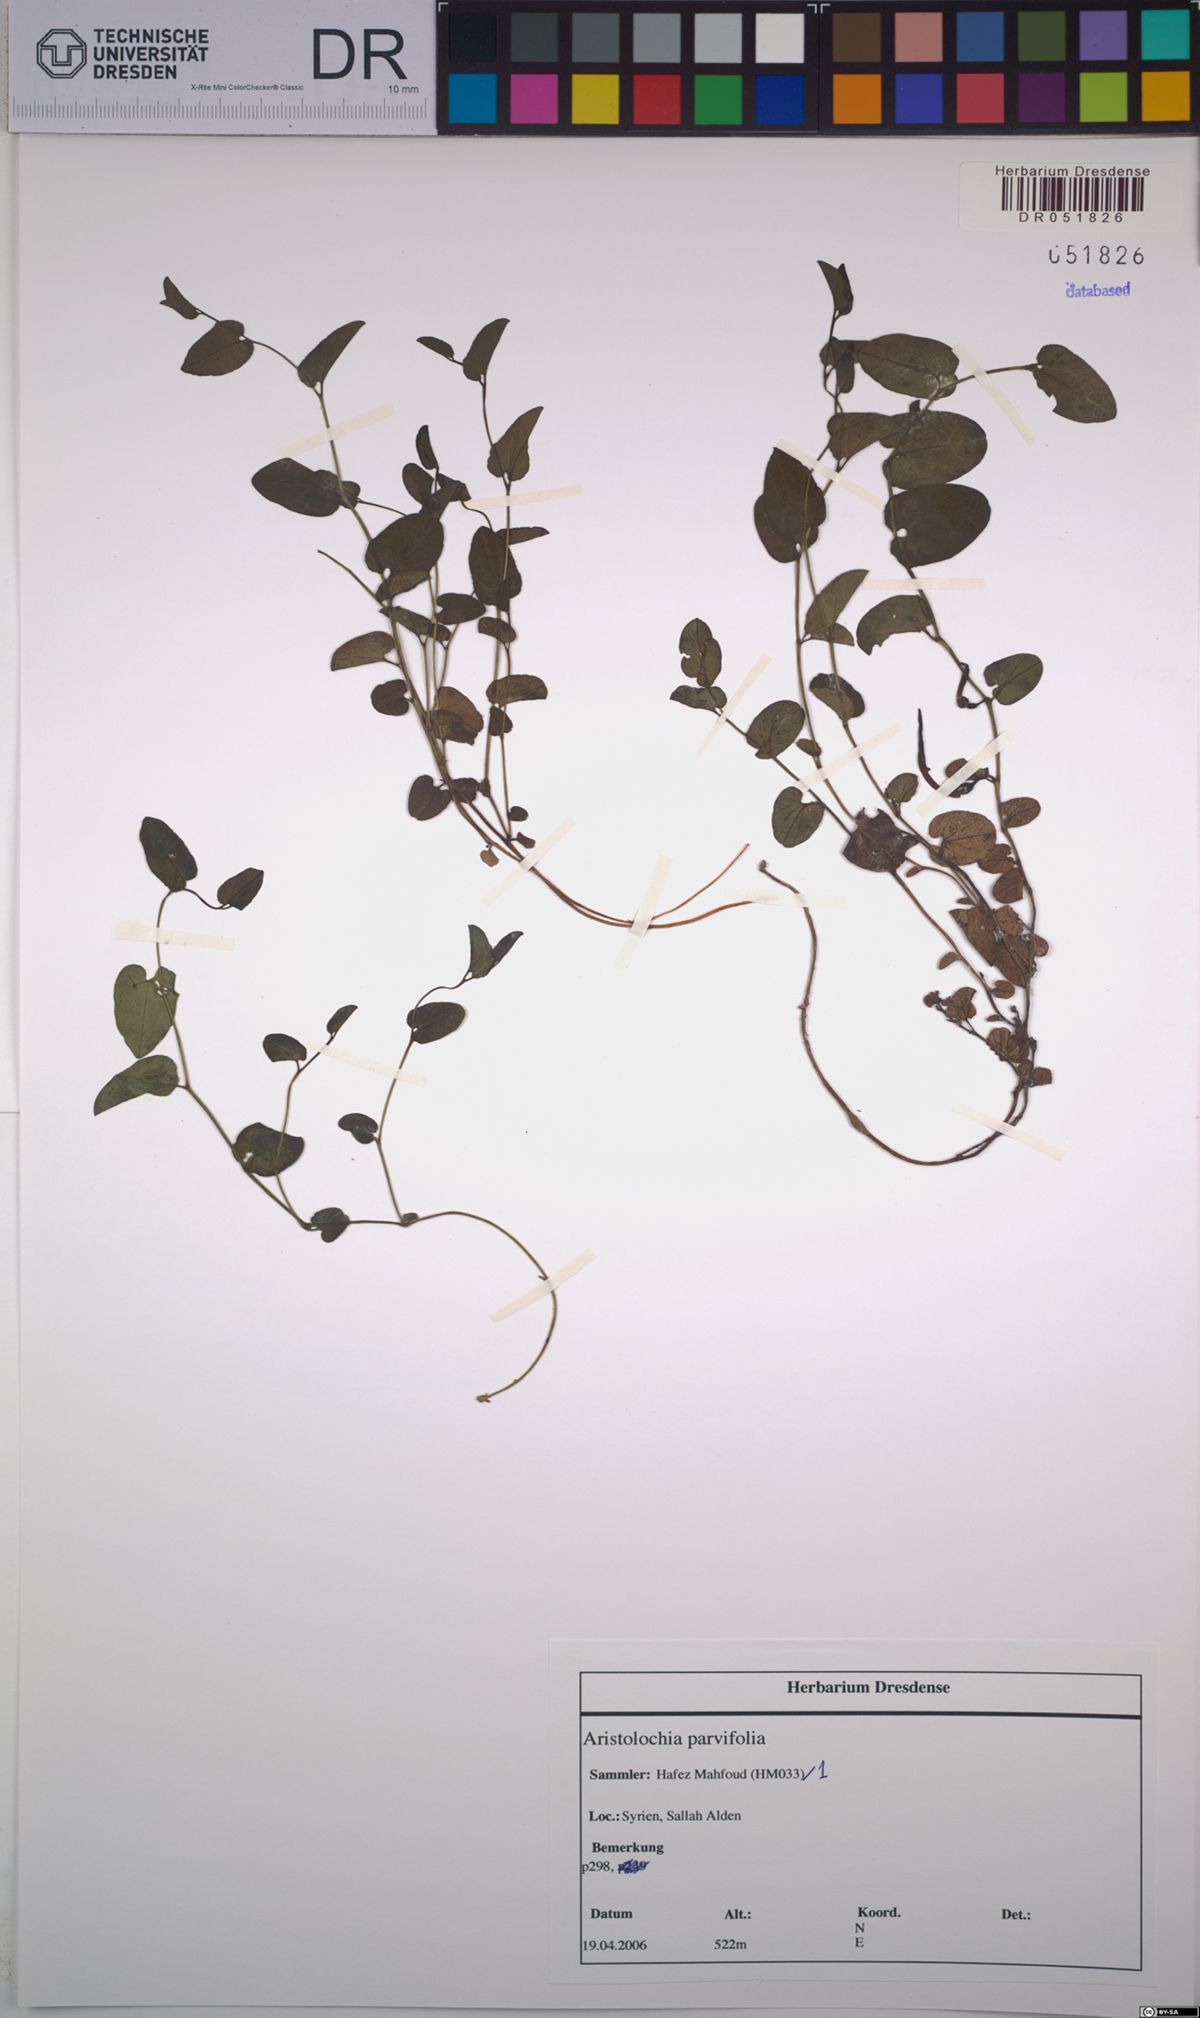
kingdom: Plantae
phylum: Tracheophyta
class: Magnoliopsida
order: Piperales
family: Aristolochiaceae
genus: Aristolochia
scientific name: Aristolochia parvifolia
